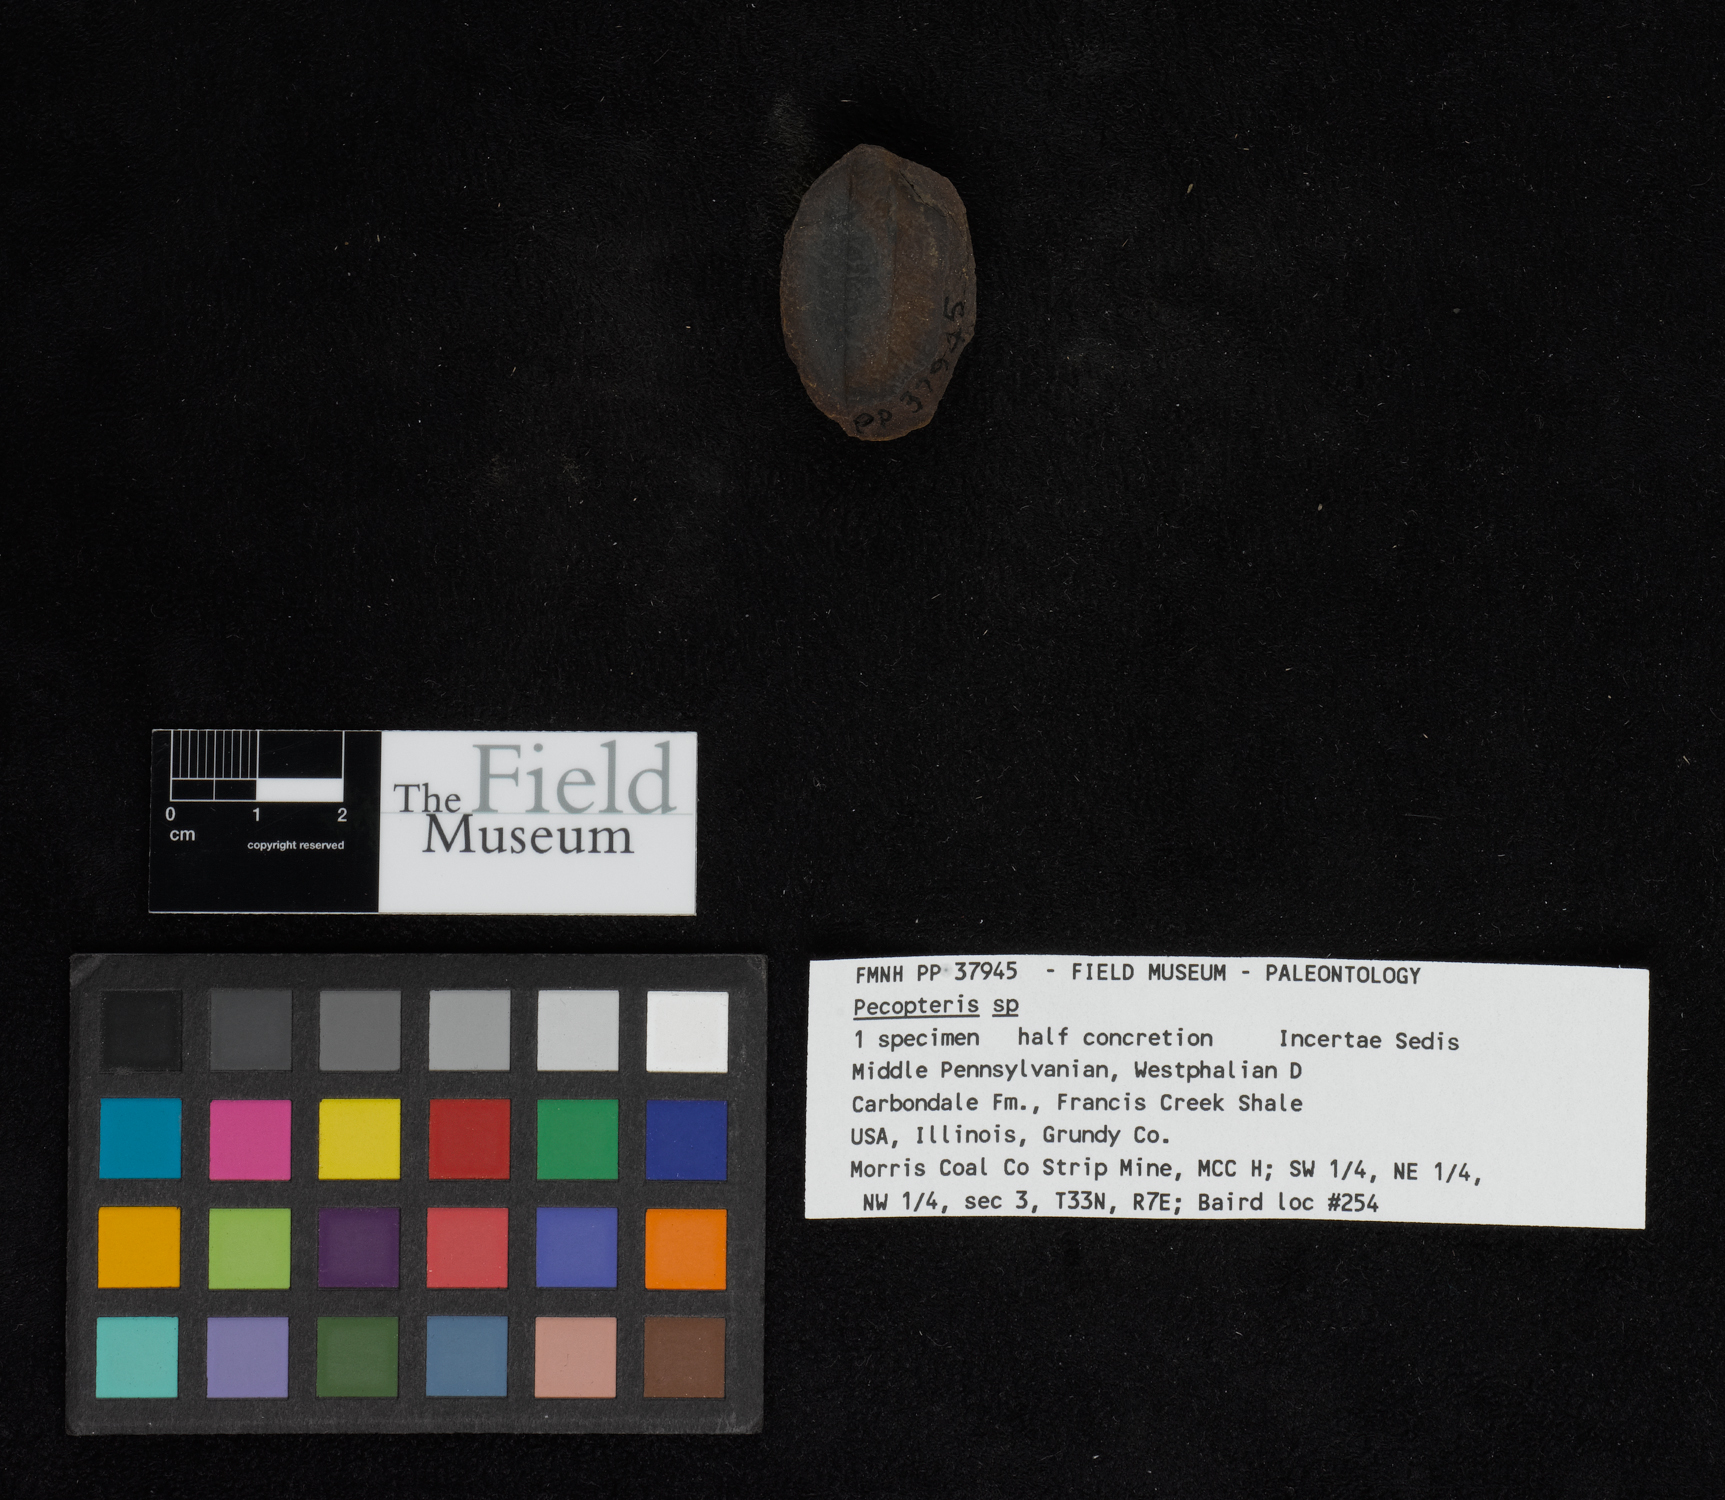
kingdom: Plantae
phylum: Tracheophyta
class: Polypodiopsida
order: Marattiales
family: Asterothecaceae
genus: Pecopteris
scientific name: Pecopteris
